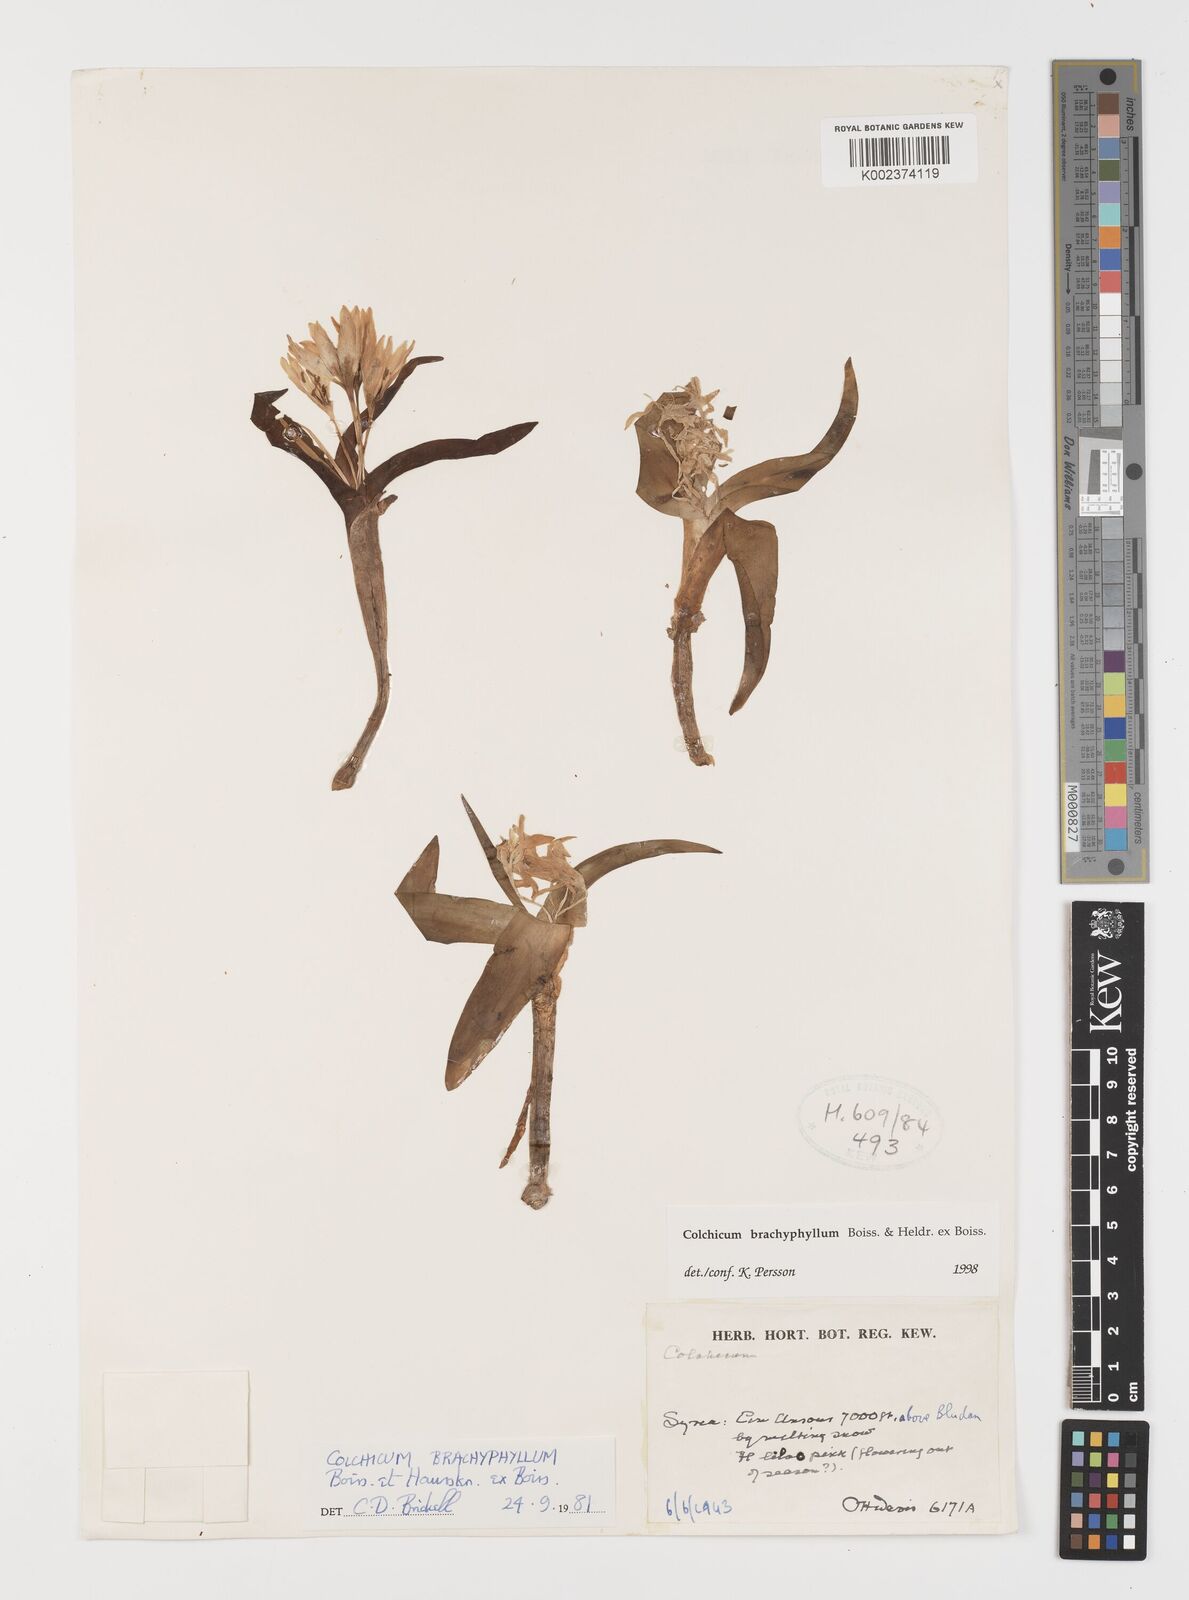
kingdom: Plantae
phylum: Tracheophyta
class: Liliopsida
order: Liliales
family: Colchicaceae
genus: Colchicum
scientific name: Colchicum szovitsii
